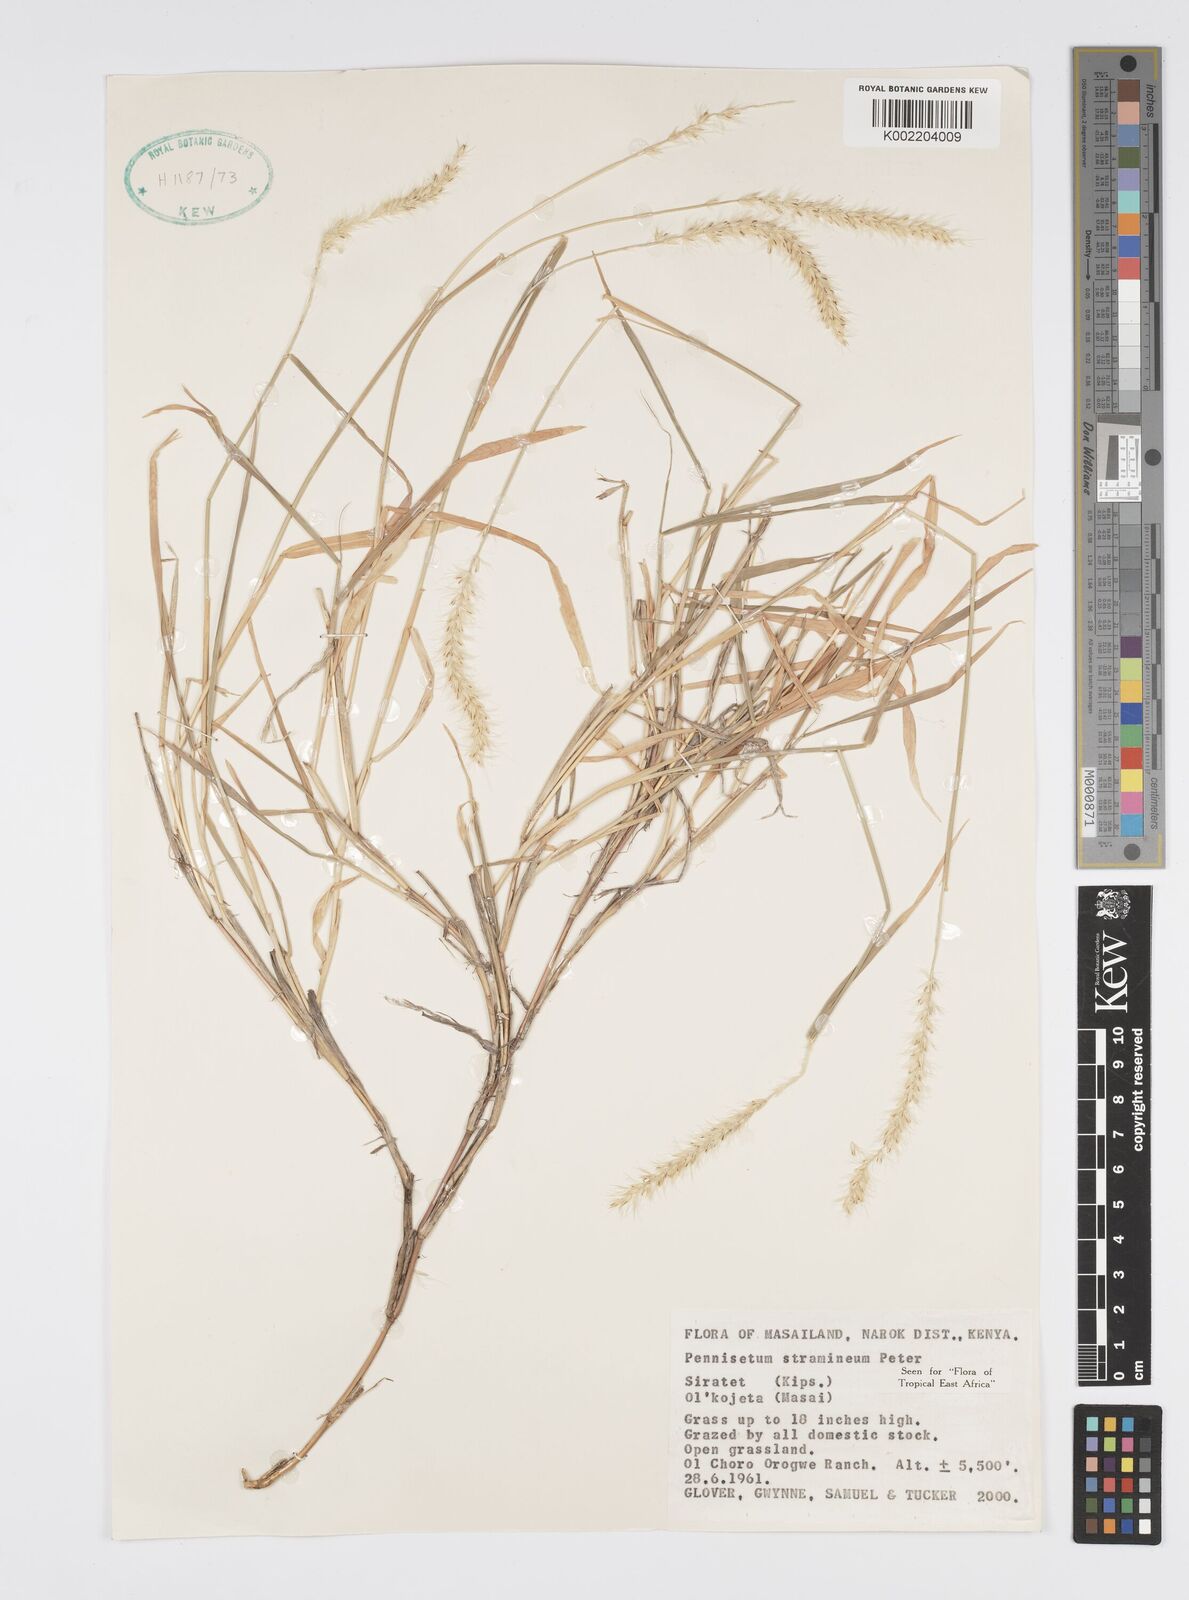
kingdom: Plantae
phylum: Tracheophyta
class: Liliopsida
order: Poales
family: Poaceae
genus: Cenchrus
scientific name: Cenchrus stramineus
